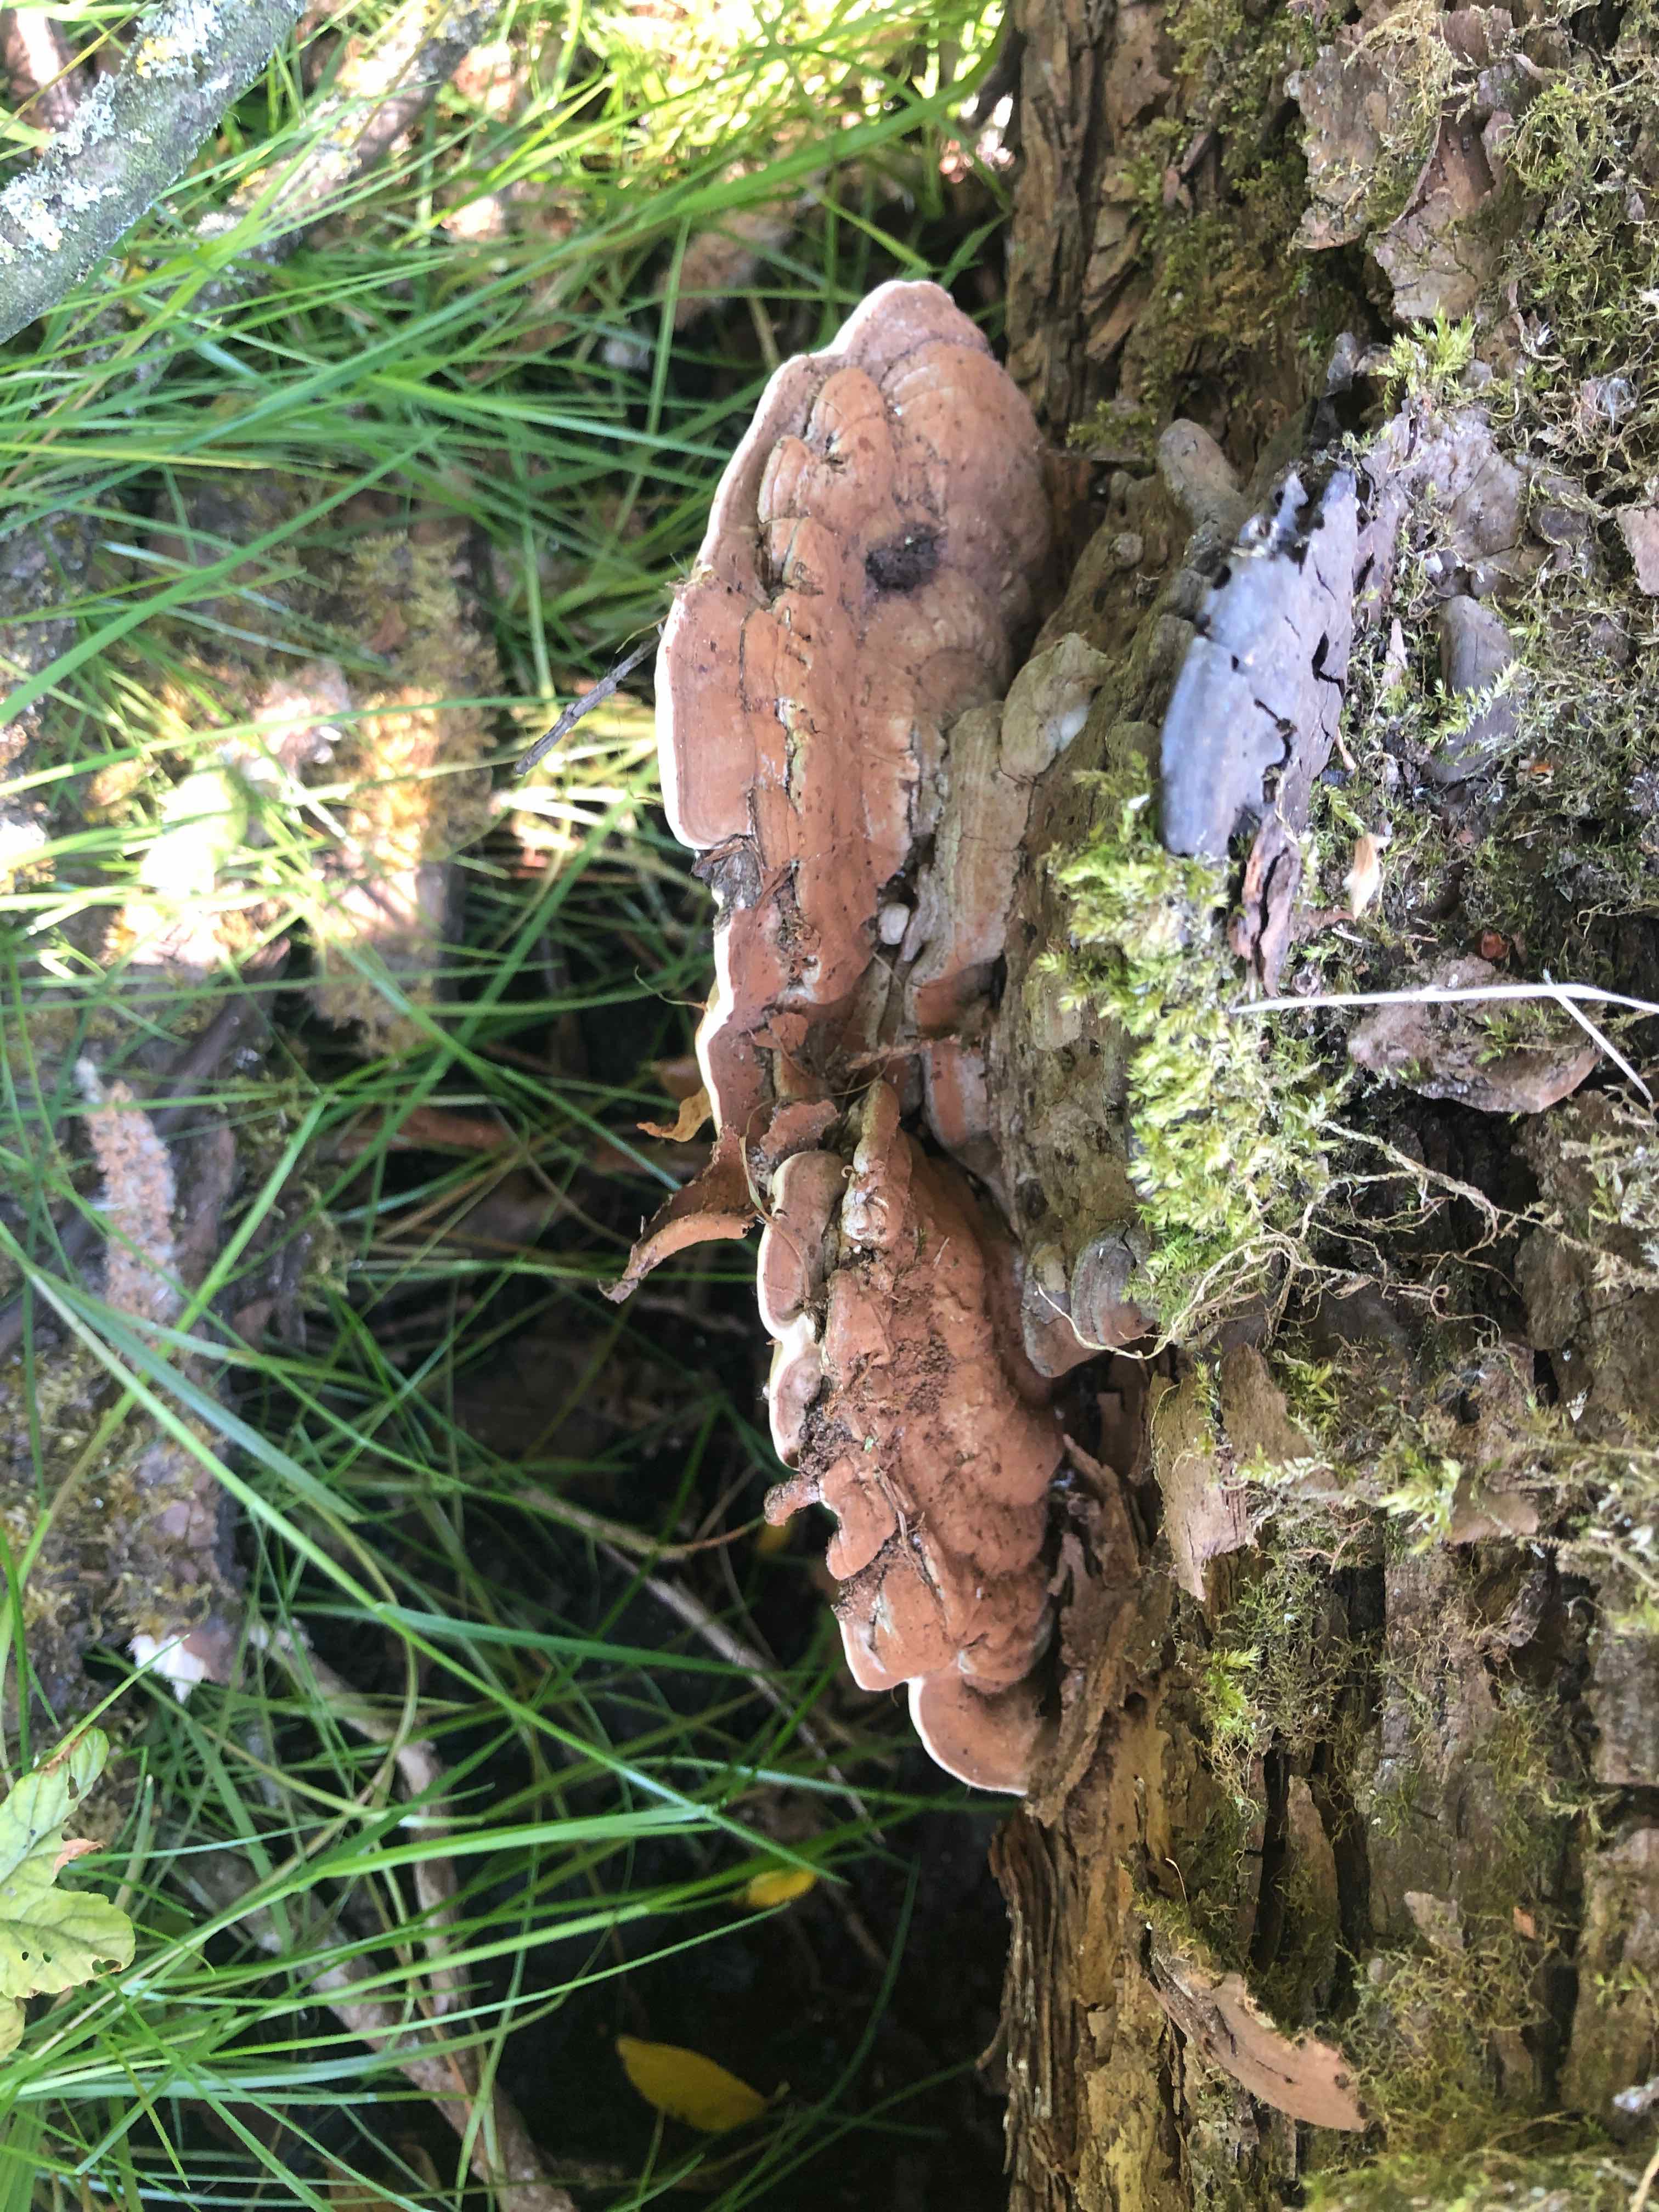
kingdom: Fungi
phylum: Basidiomycota
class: Agaricomycetes
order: Polyporales
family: Polyporaceae
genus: Ganoderma
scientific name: Ganoderma applanatum
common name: flad lakporesvamp
